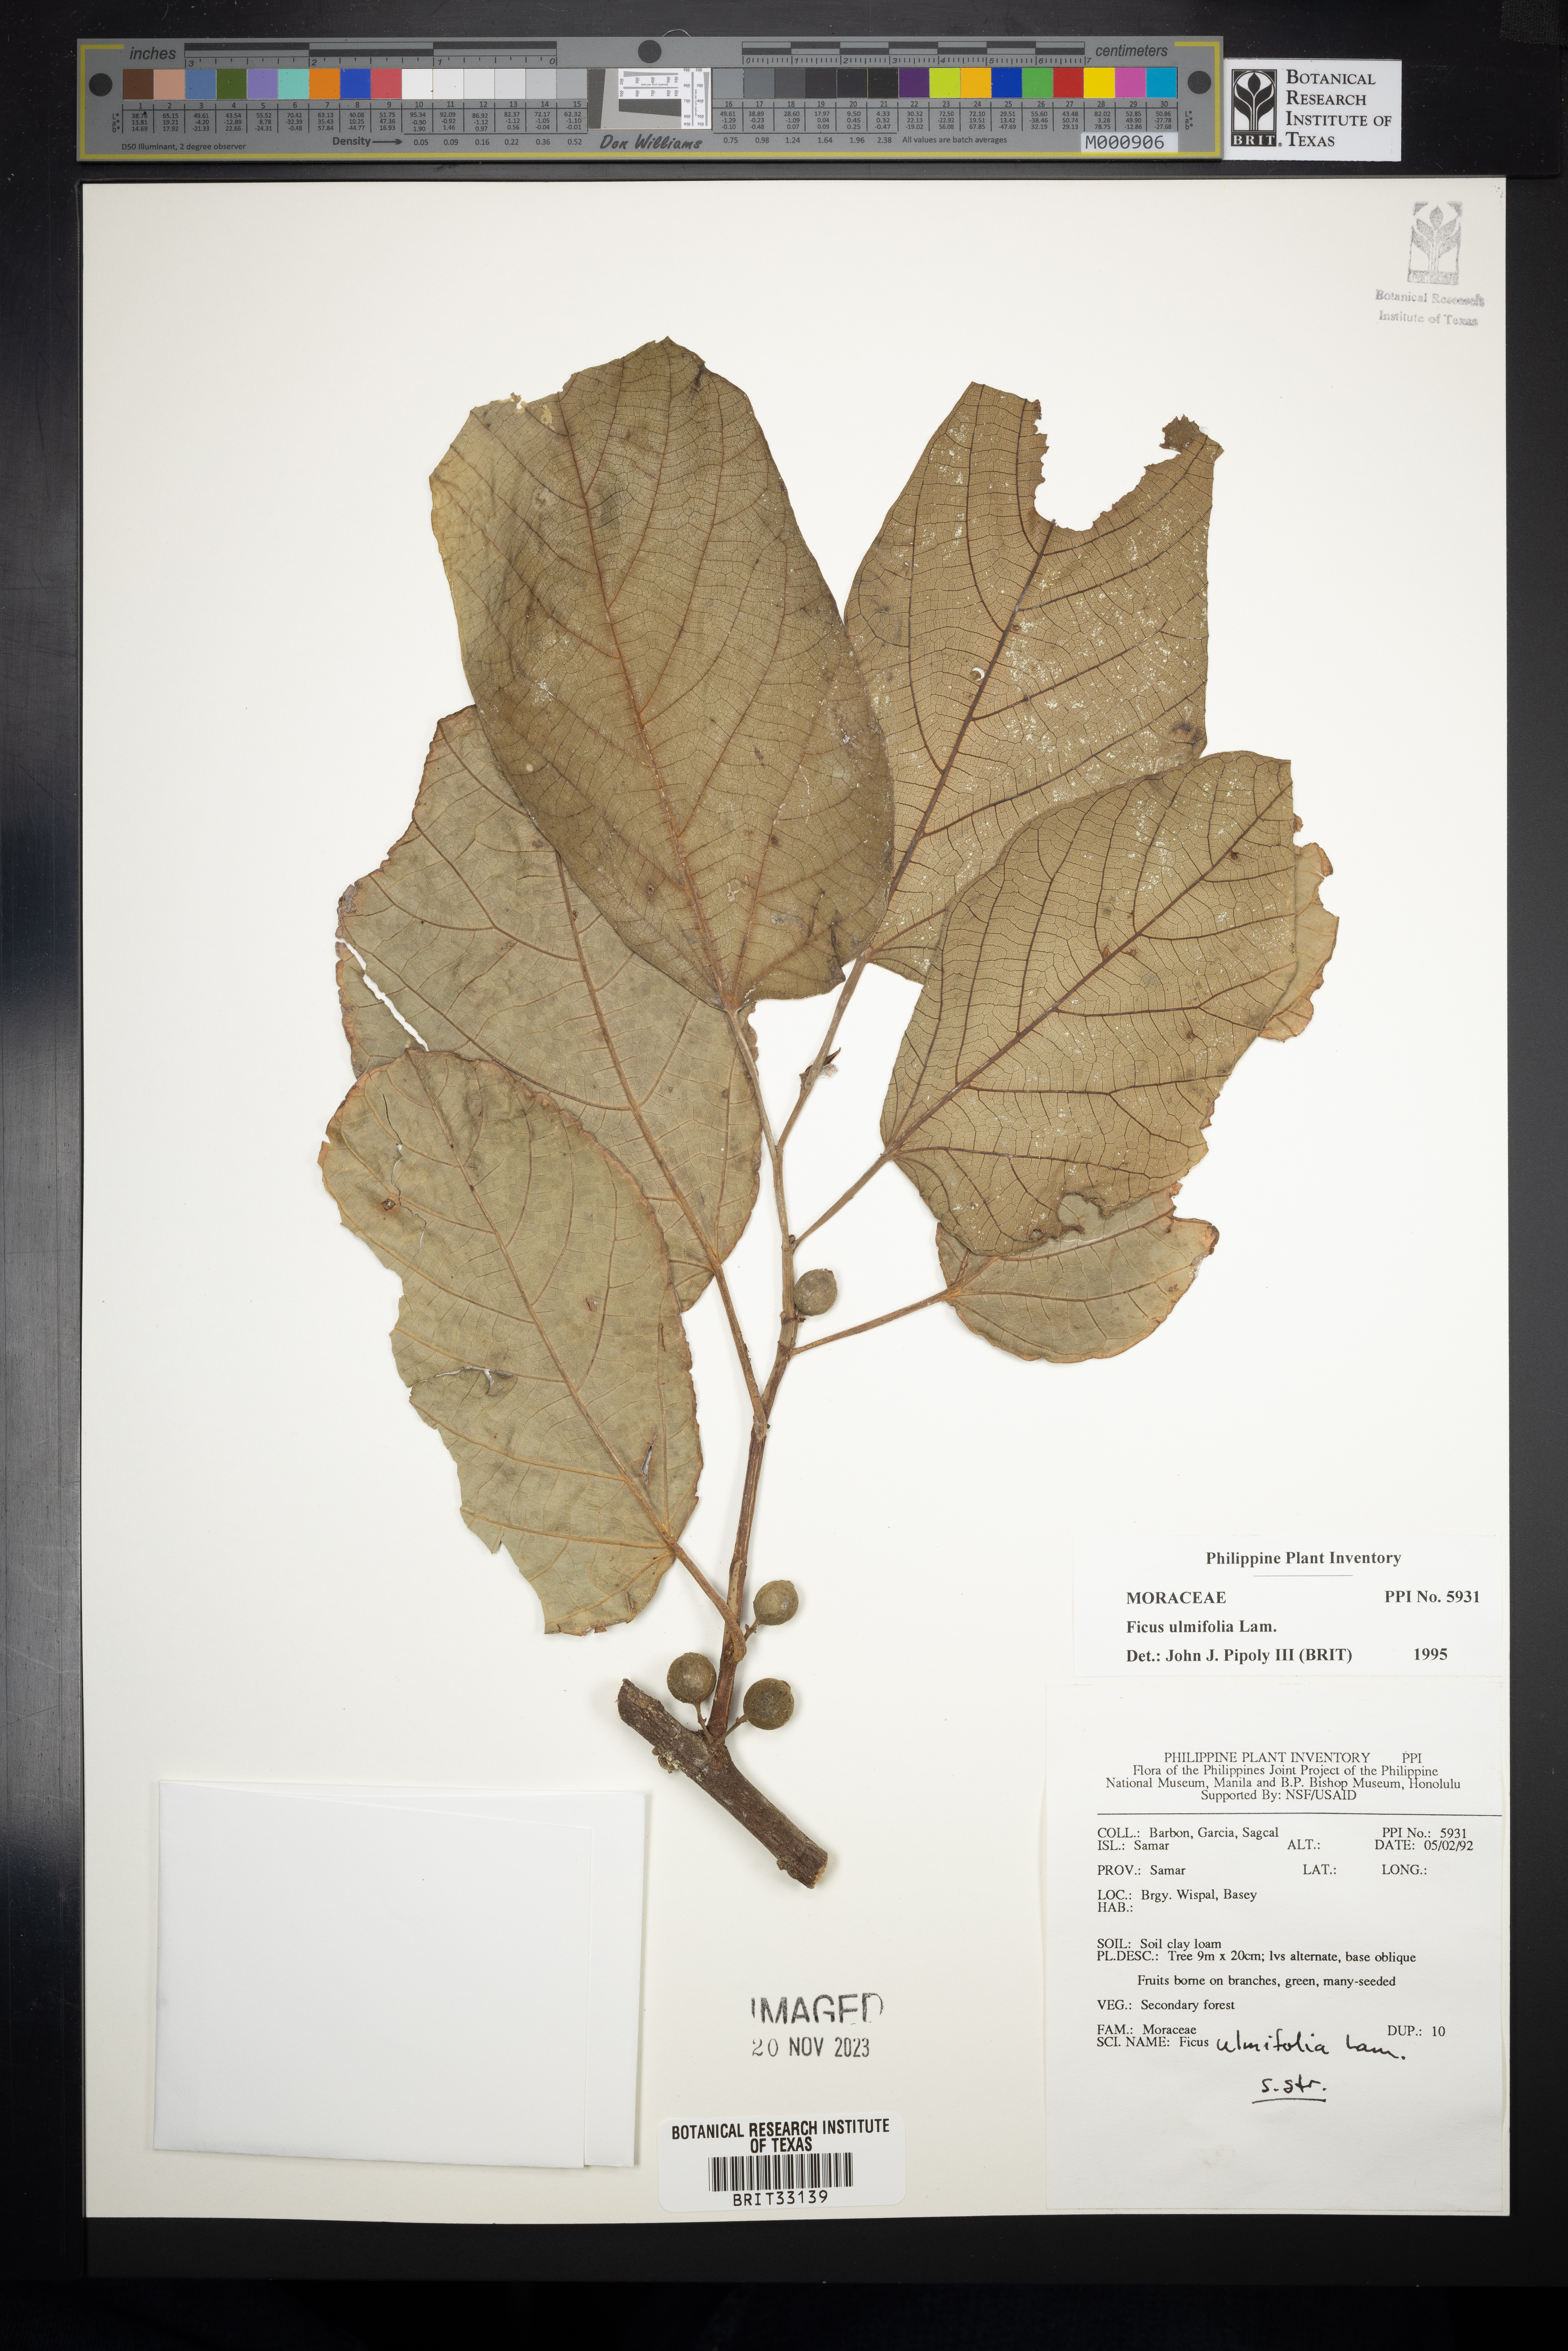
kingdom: Plantae
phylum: Tracheophyta
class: Magnoliopsida
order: Rosales
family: Moraceae
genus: Ficus
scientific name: Ficus ulmifolia
